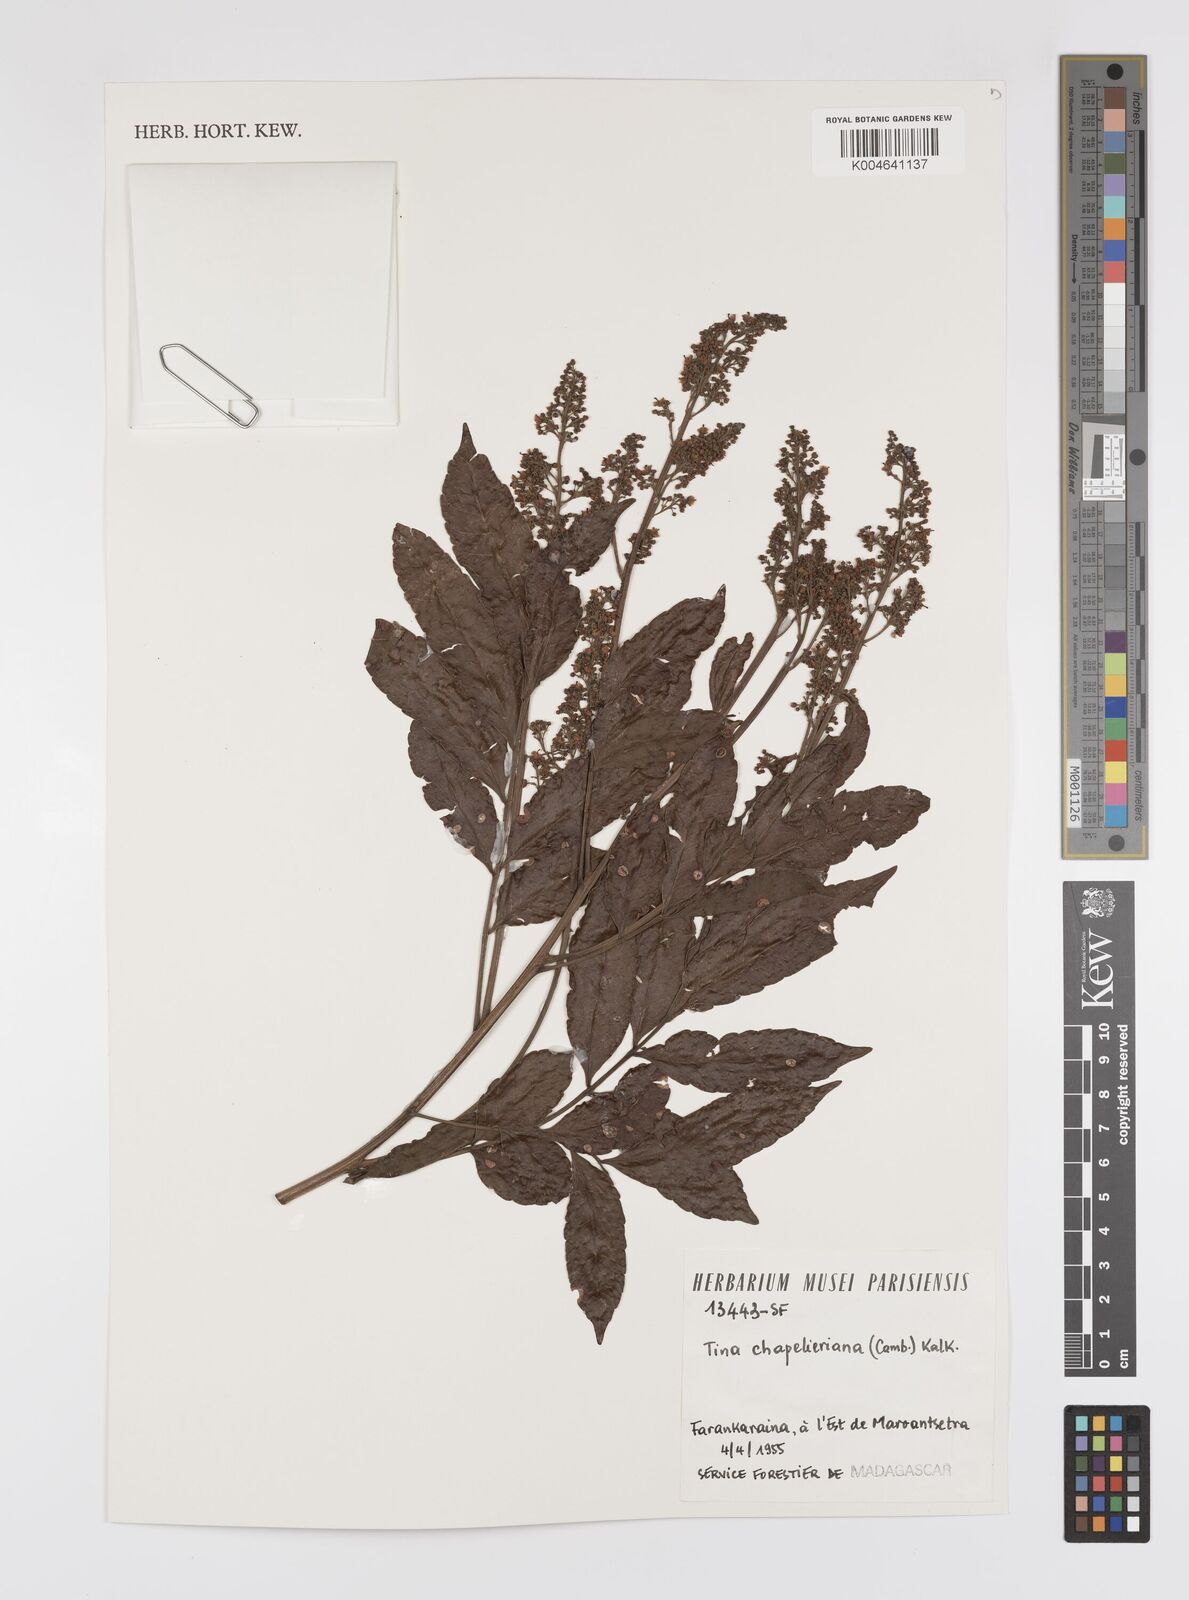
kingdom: Plantae
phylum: Tracheophyta
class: Magnoliopsida
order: Sapindales
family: Sapindaceae
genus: Tina
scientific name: Tina chapelieriana
